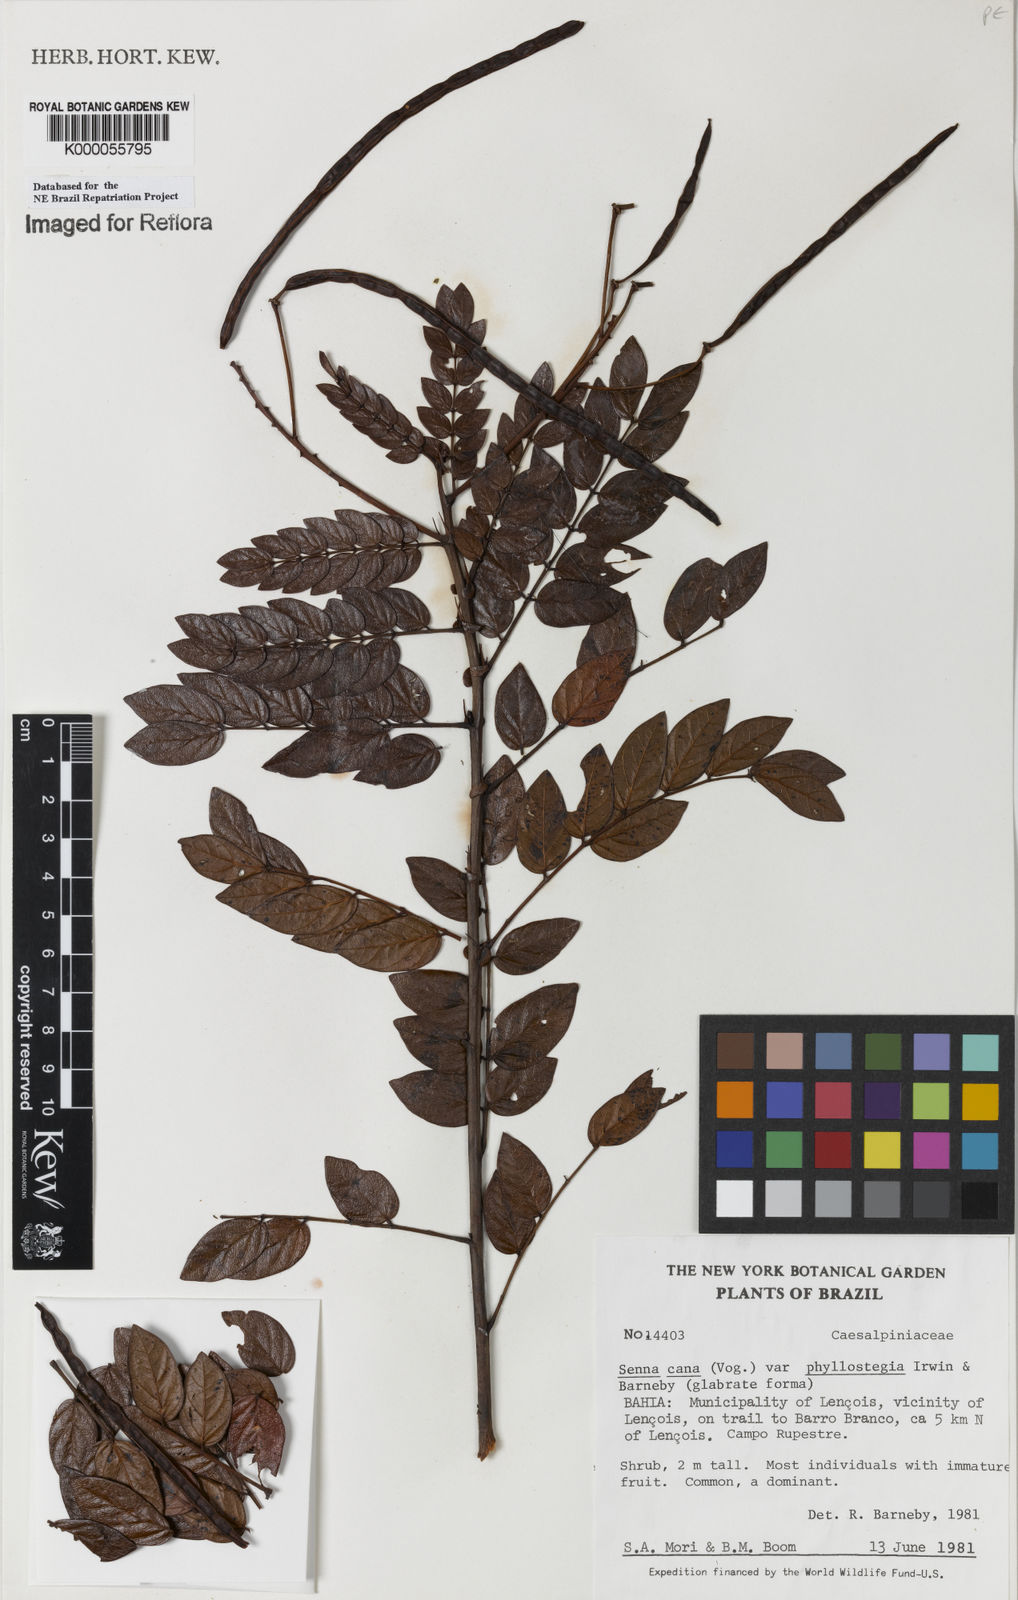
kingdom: Plantae
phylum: Tracheophyta
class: Magnoliopsida
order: Fabales
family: Fabaceae
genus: Senna
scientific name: Senna cana
